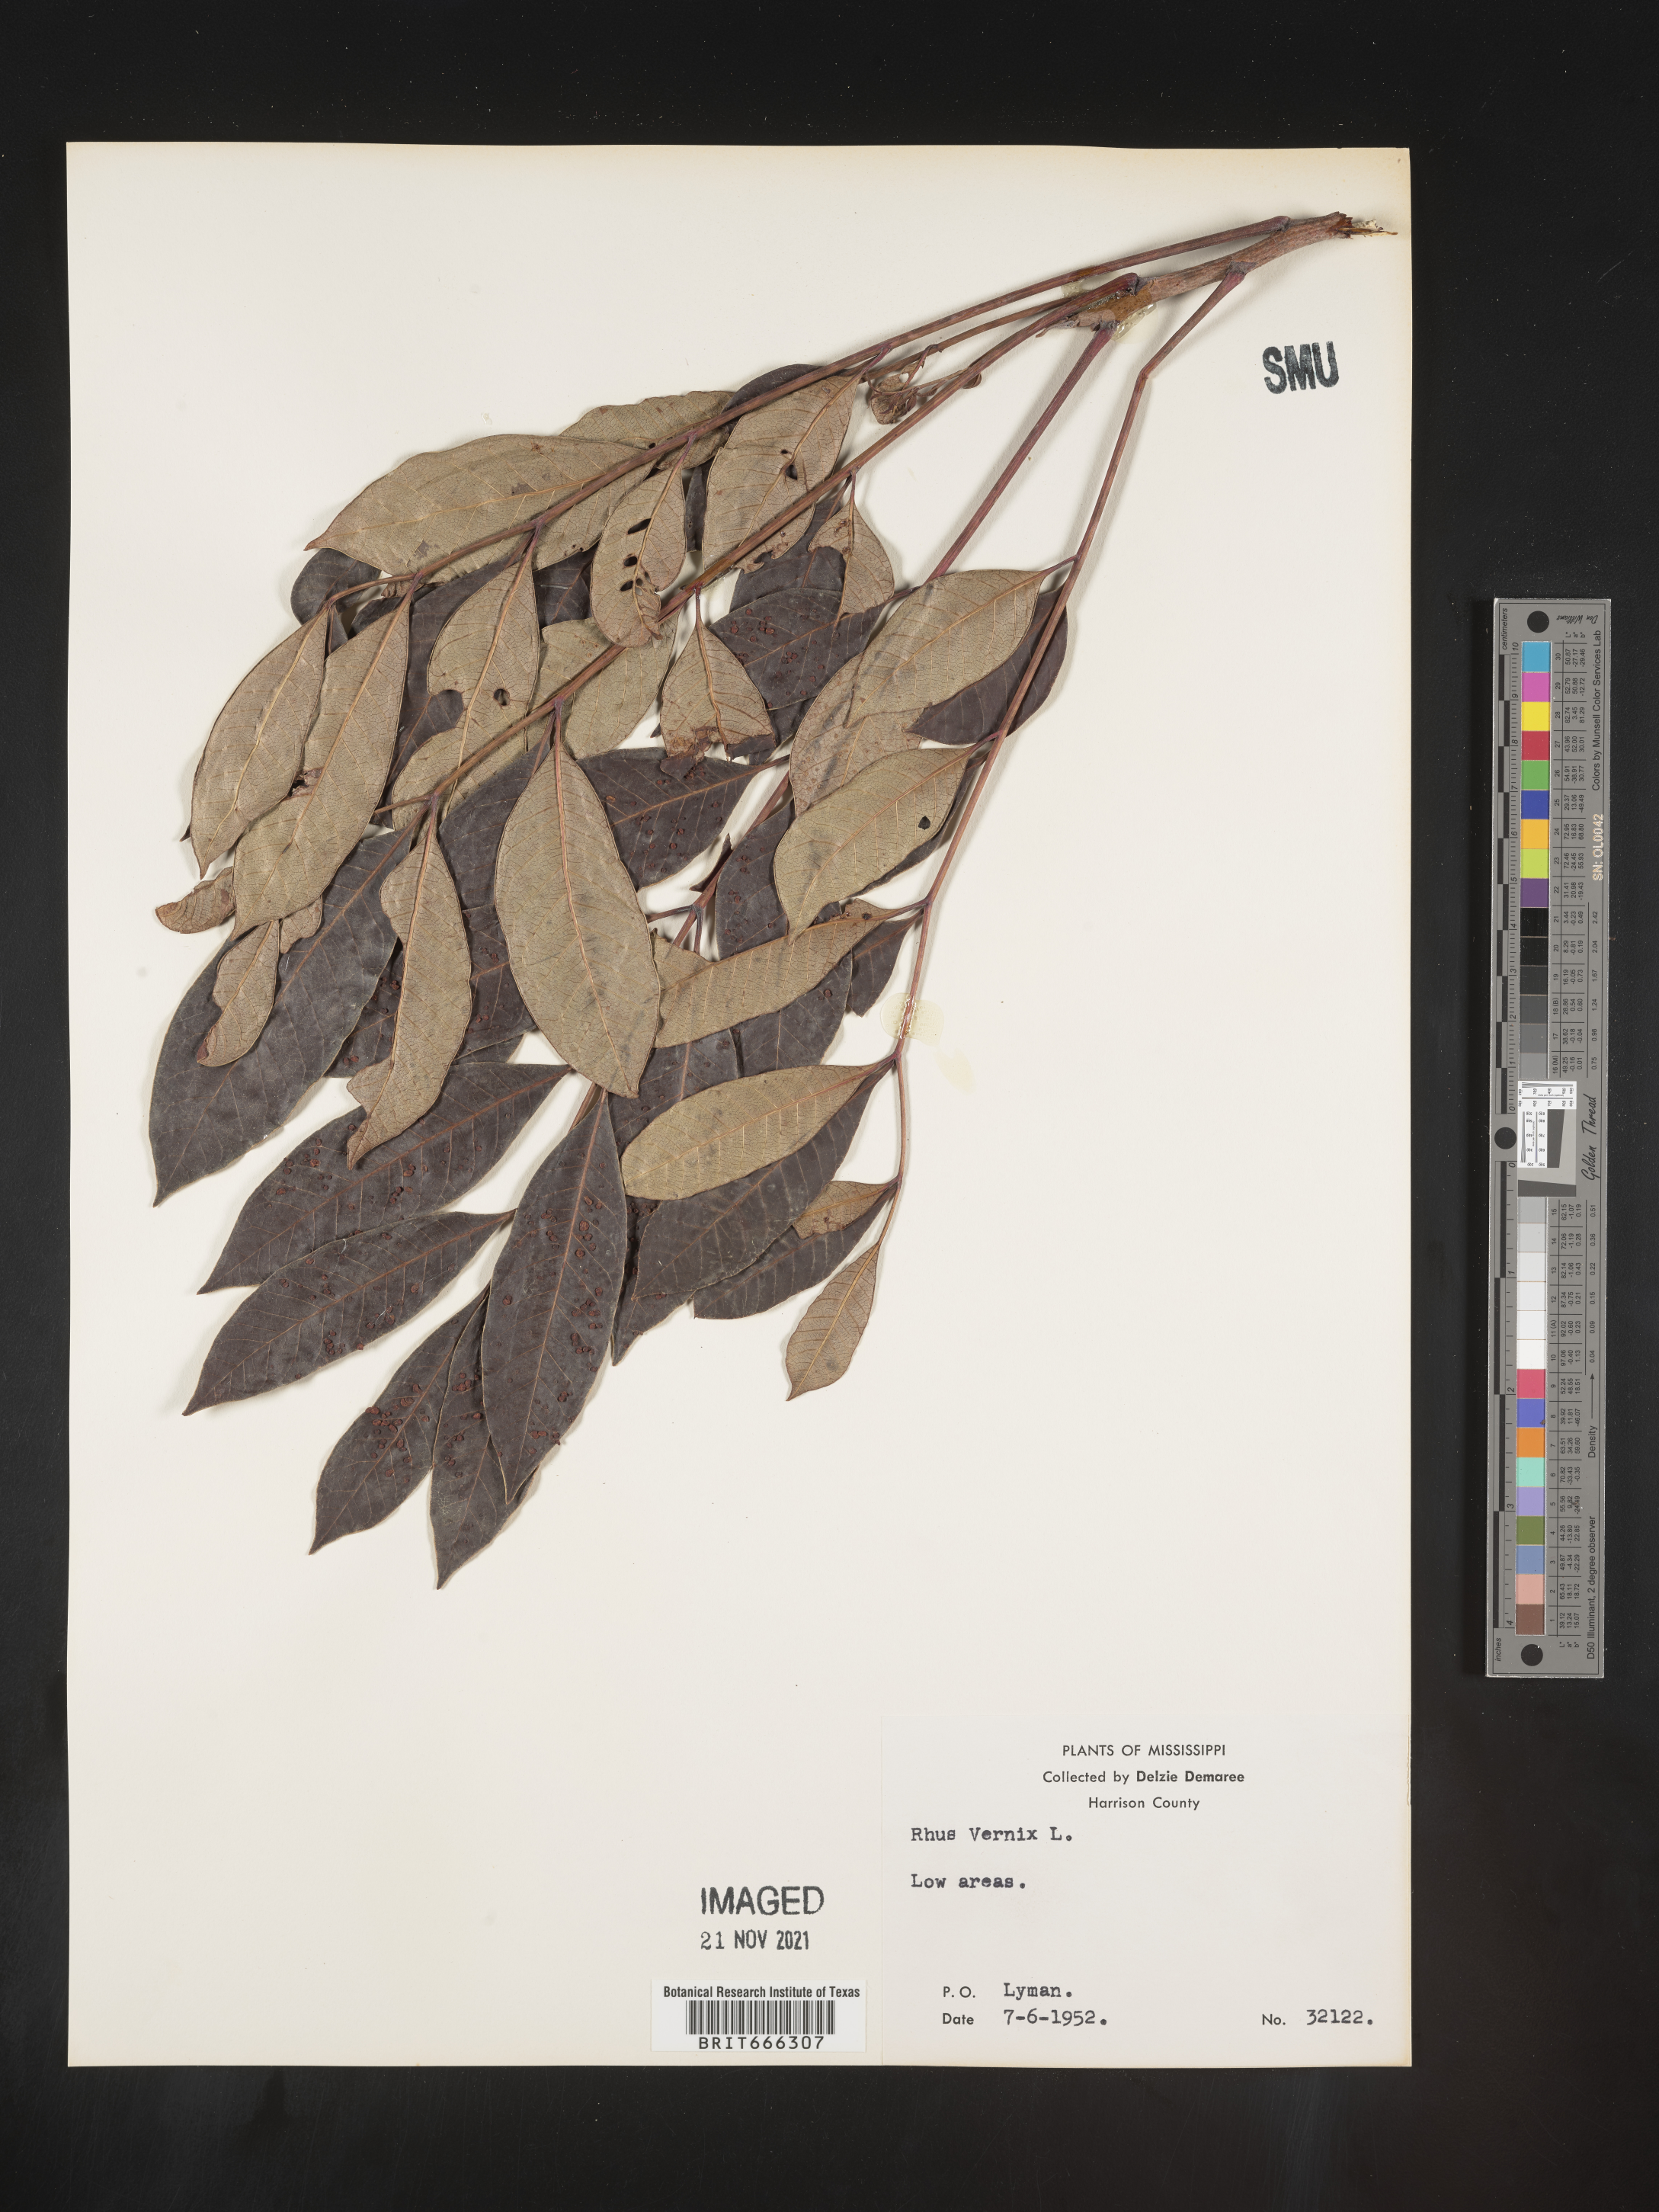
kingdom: Plantae
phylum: Tracheophyta
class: Magnoliopsida
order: Sapindales
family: Anacardiaceae
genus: Toxicodendron
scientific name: Toxicodendron vernix
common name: Poison sumac
